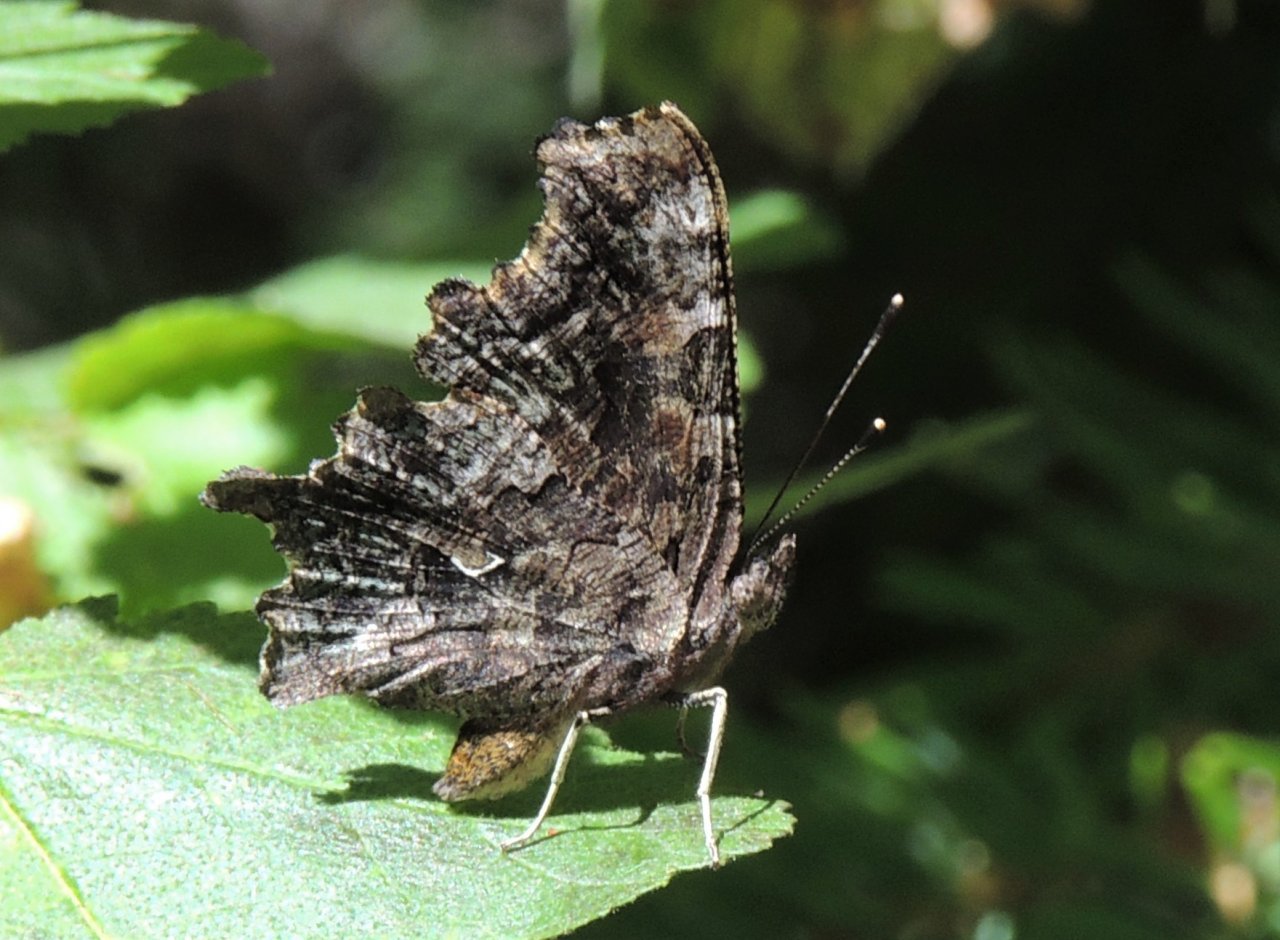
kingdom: Animalia
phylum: Arthropoda
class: Insecta
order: Lepidoptera
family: Nymphalidae
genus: Polygonia
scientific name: Polygonia faunus
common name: Green Comma
